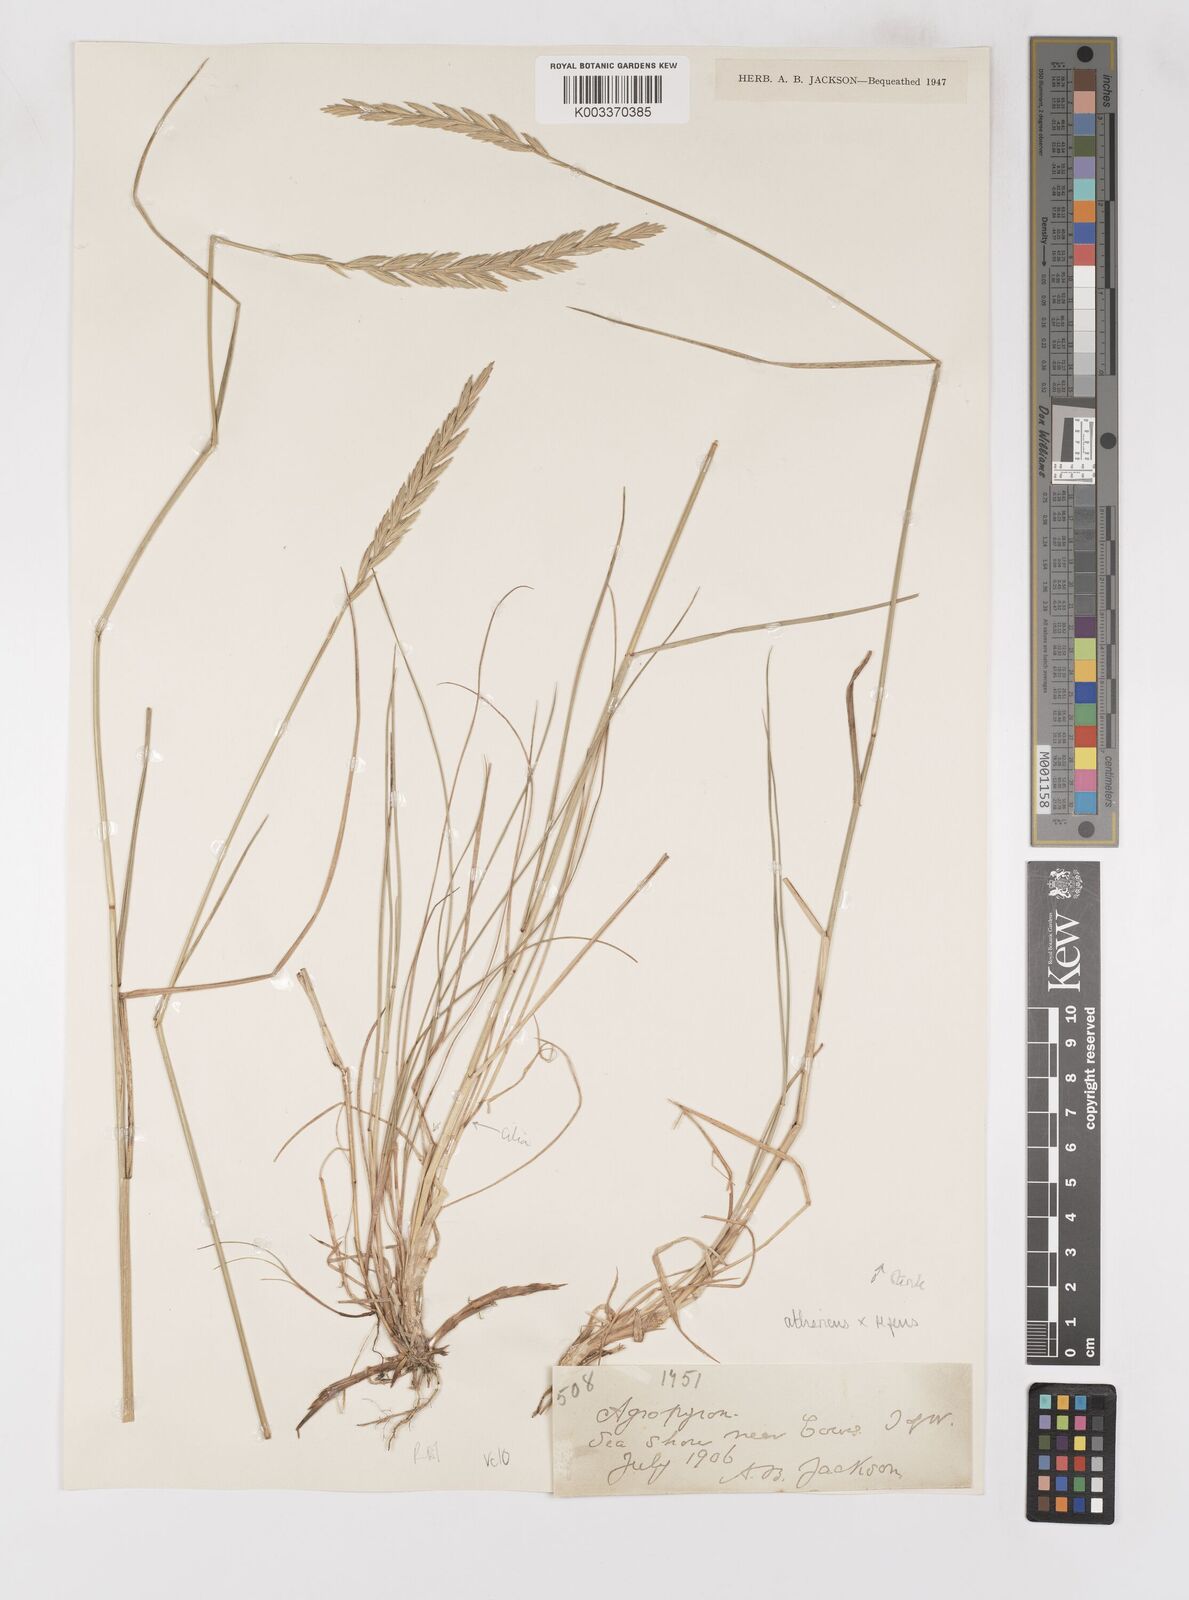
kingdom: Plantae
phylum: Tracheophyta
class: Liliopsida
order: Poales
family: Poaceae
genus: Elymus
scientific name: Elymus oliveri
